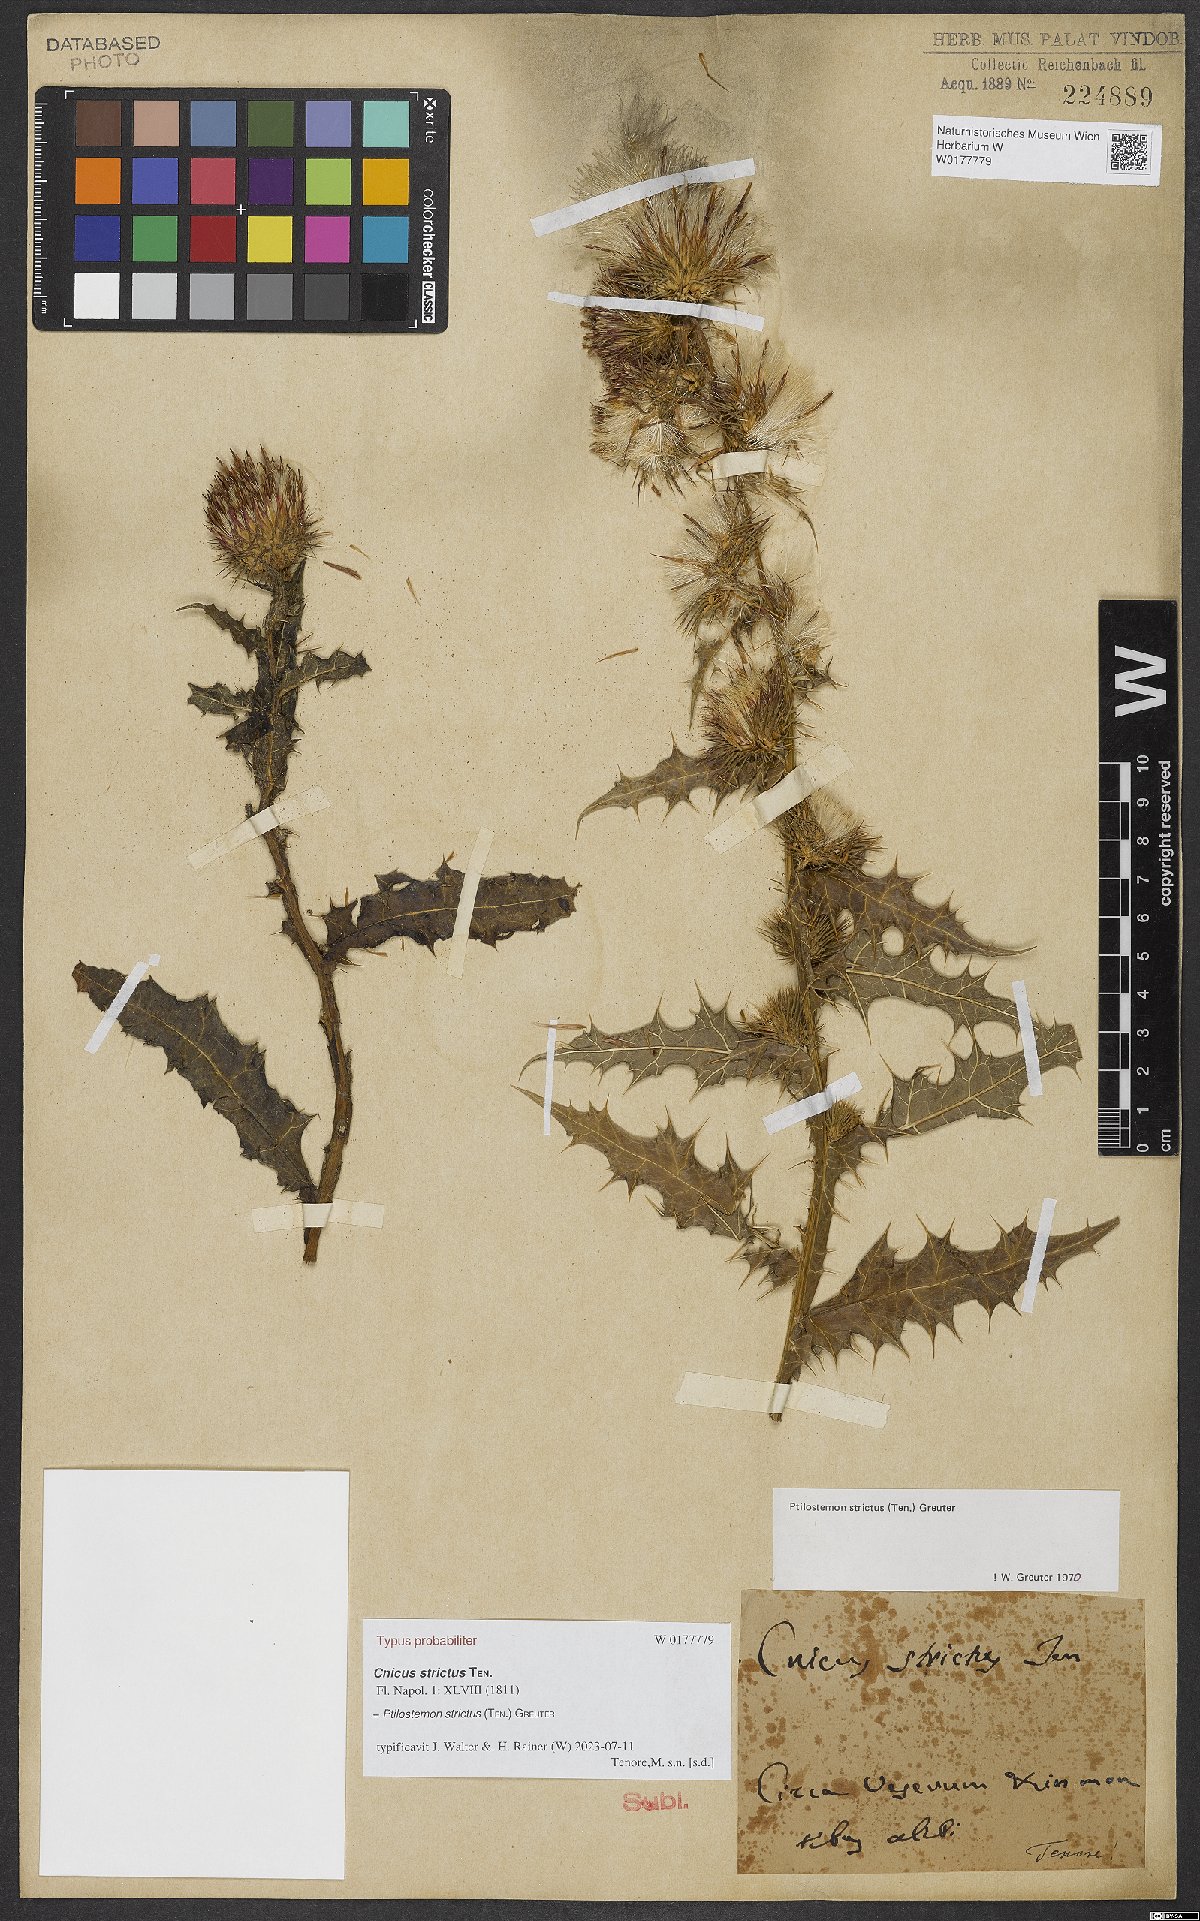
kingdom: Plantae
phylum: Tracheophyta
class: Magnoliopsida
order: Asterales
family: Asteraceae
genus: Ptilostemon
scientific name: Ptilostemon strictus
